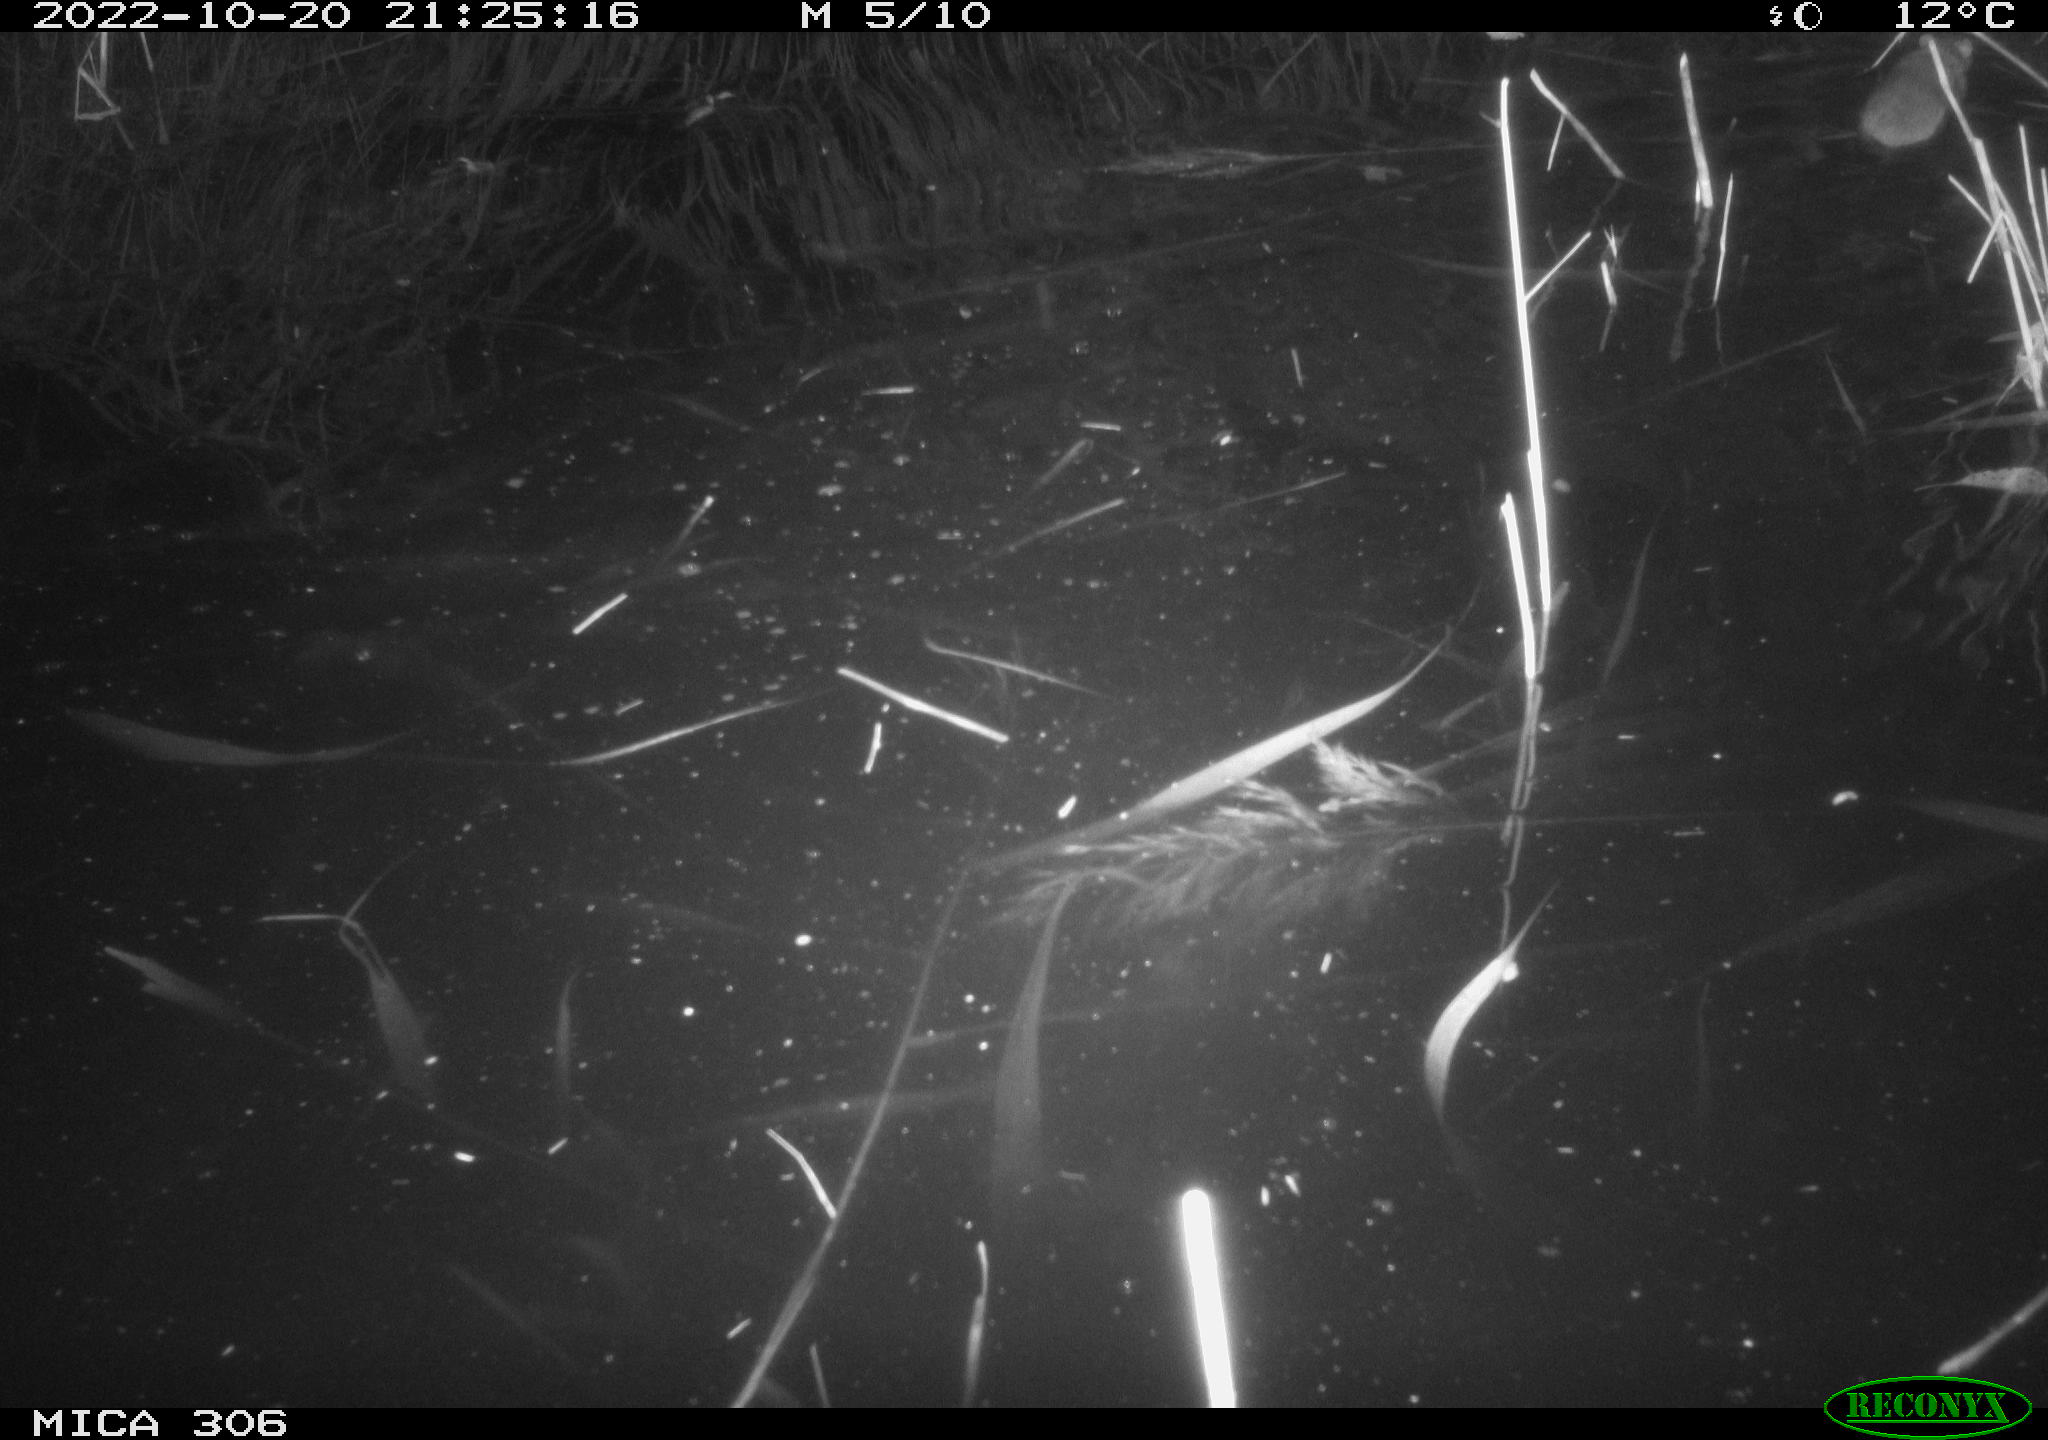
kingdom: Animalia
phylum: Chordata
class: Mammalia
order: Rodentia
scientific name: Rodentia
